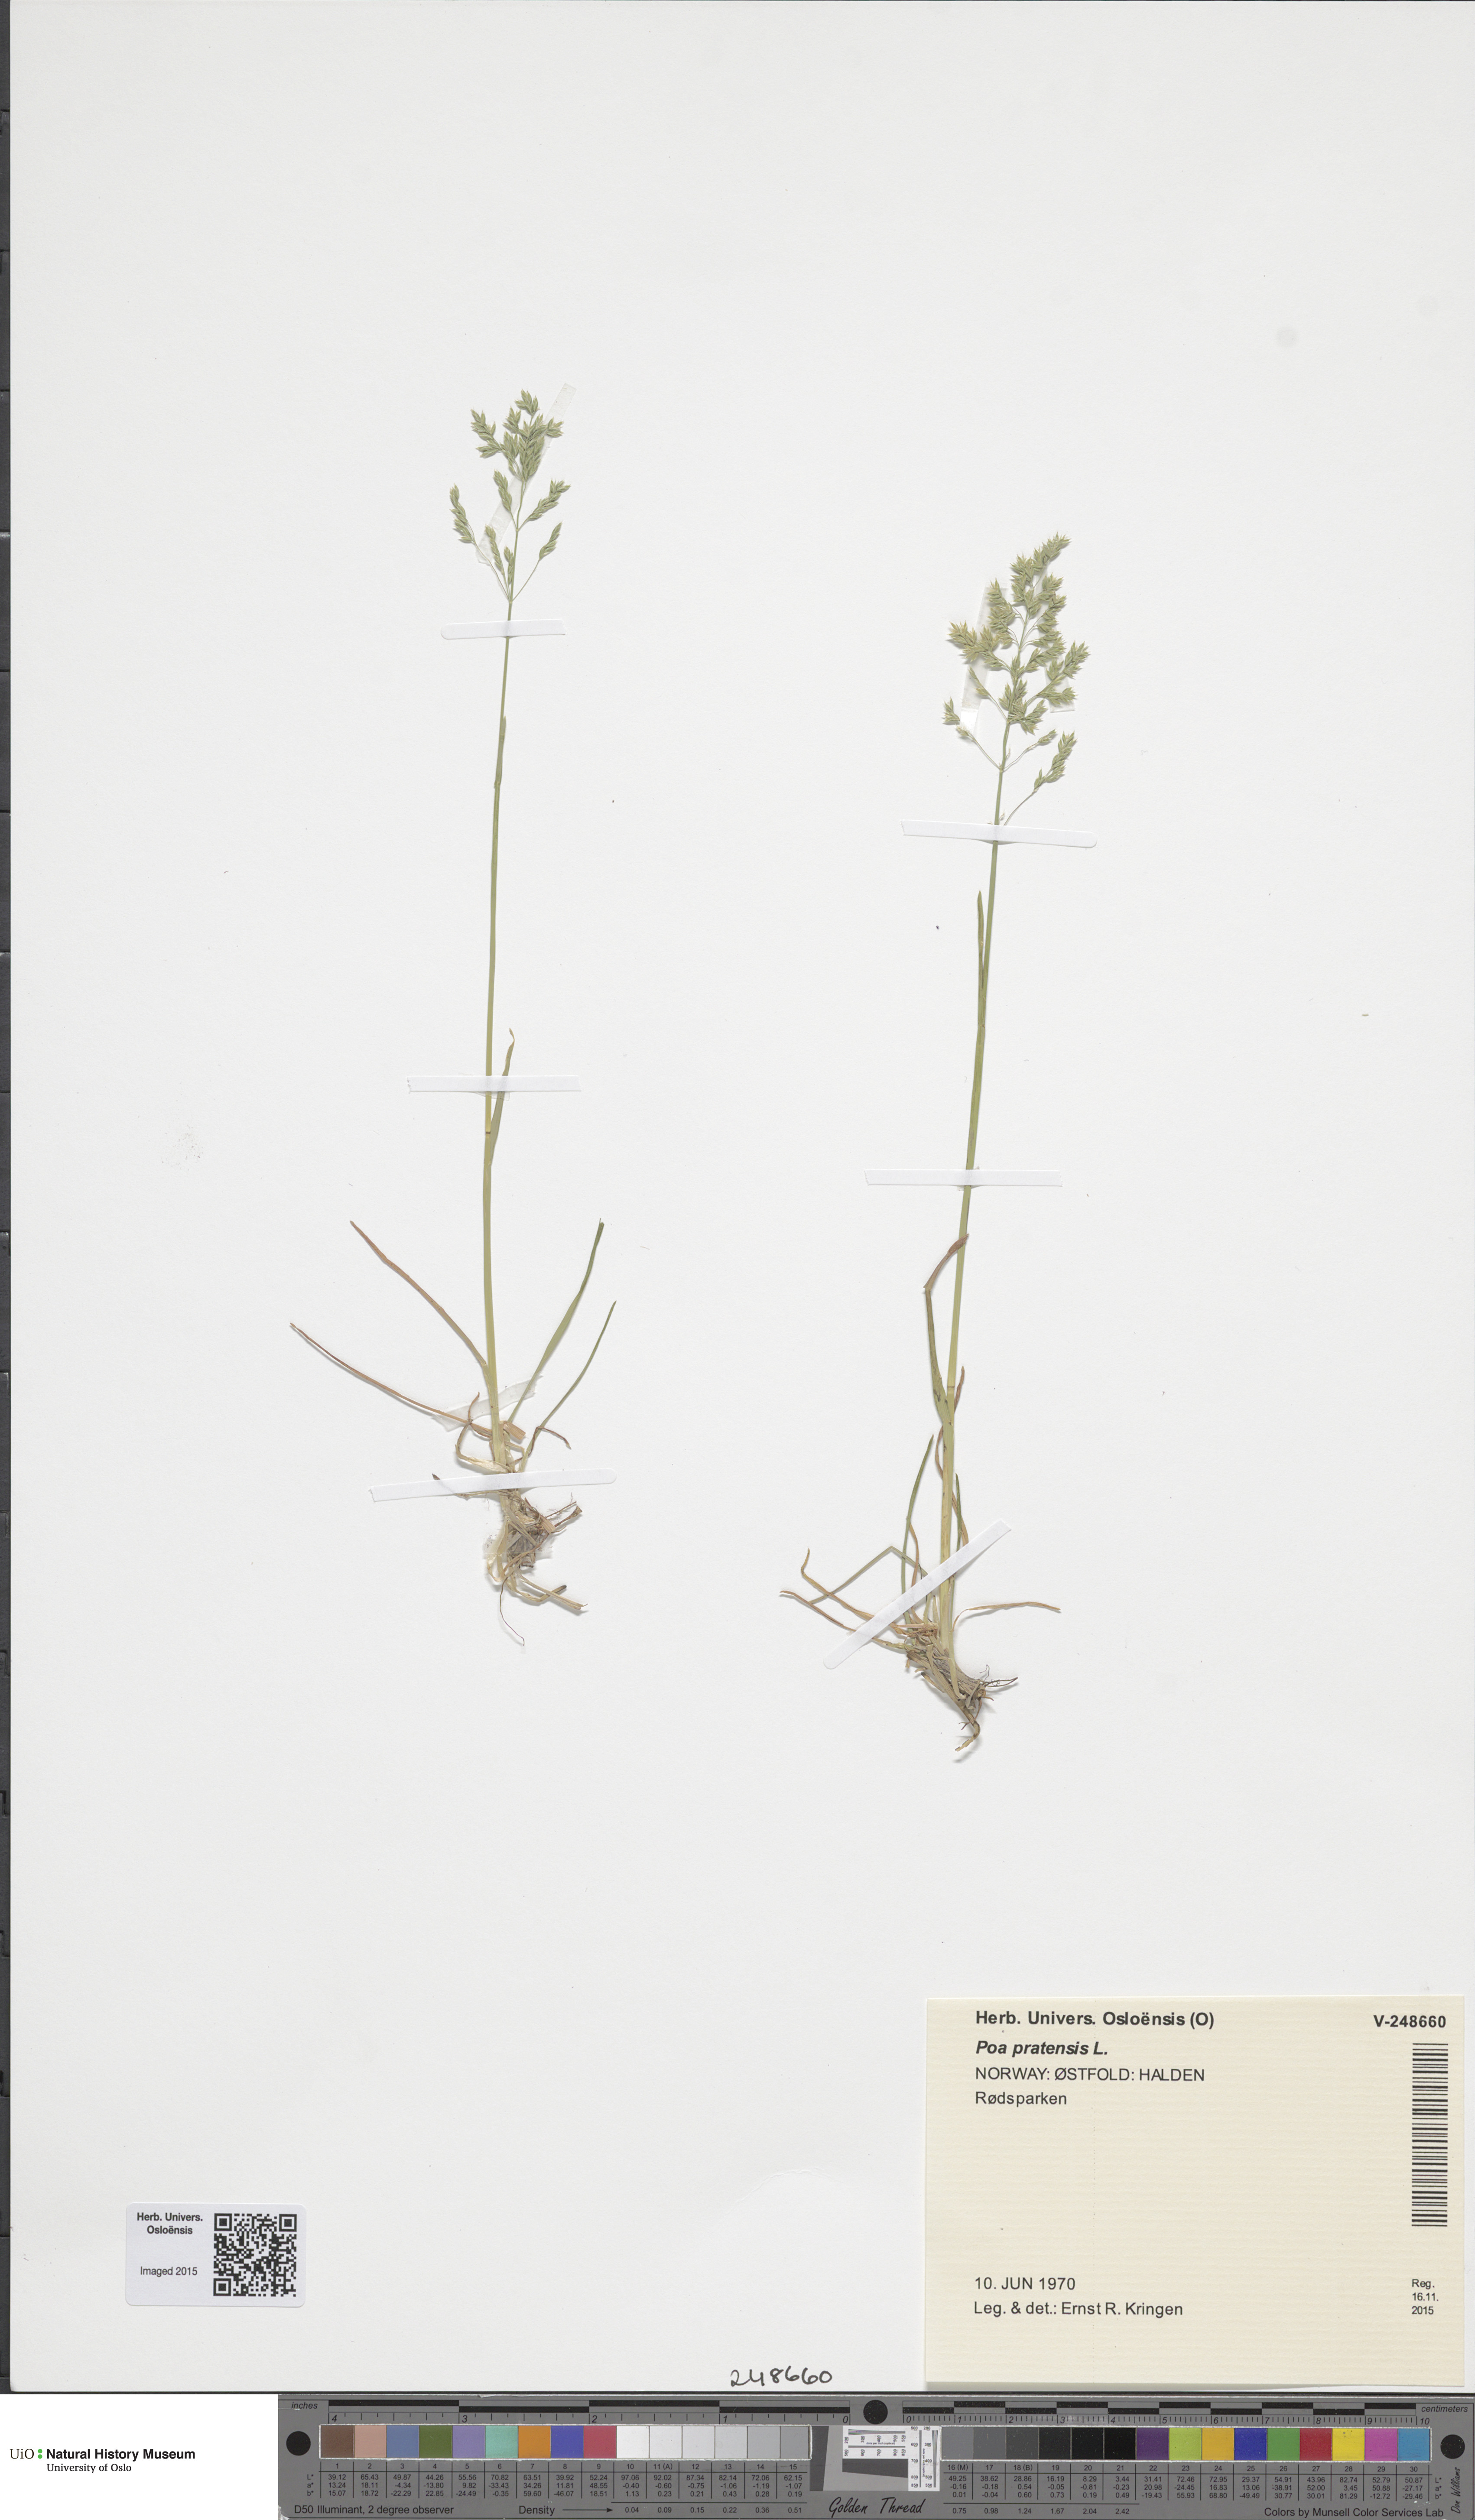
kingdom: Plantae
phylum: Tracheophyta
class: Liliopsida
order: Poales
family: Poaceae
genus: Poa
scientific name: Poa pratensis
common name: Kentucky bluegrass
